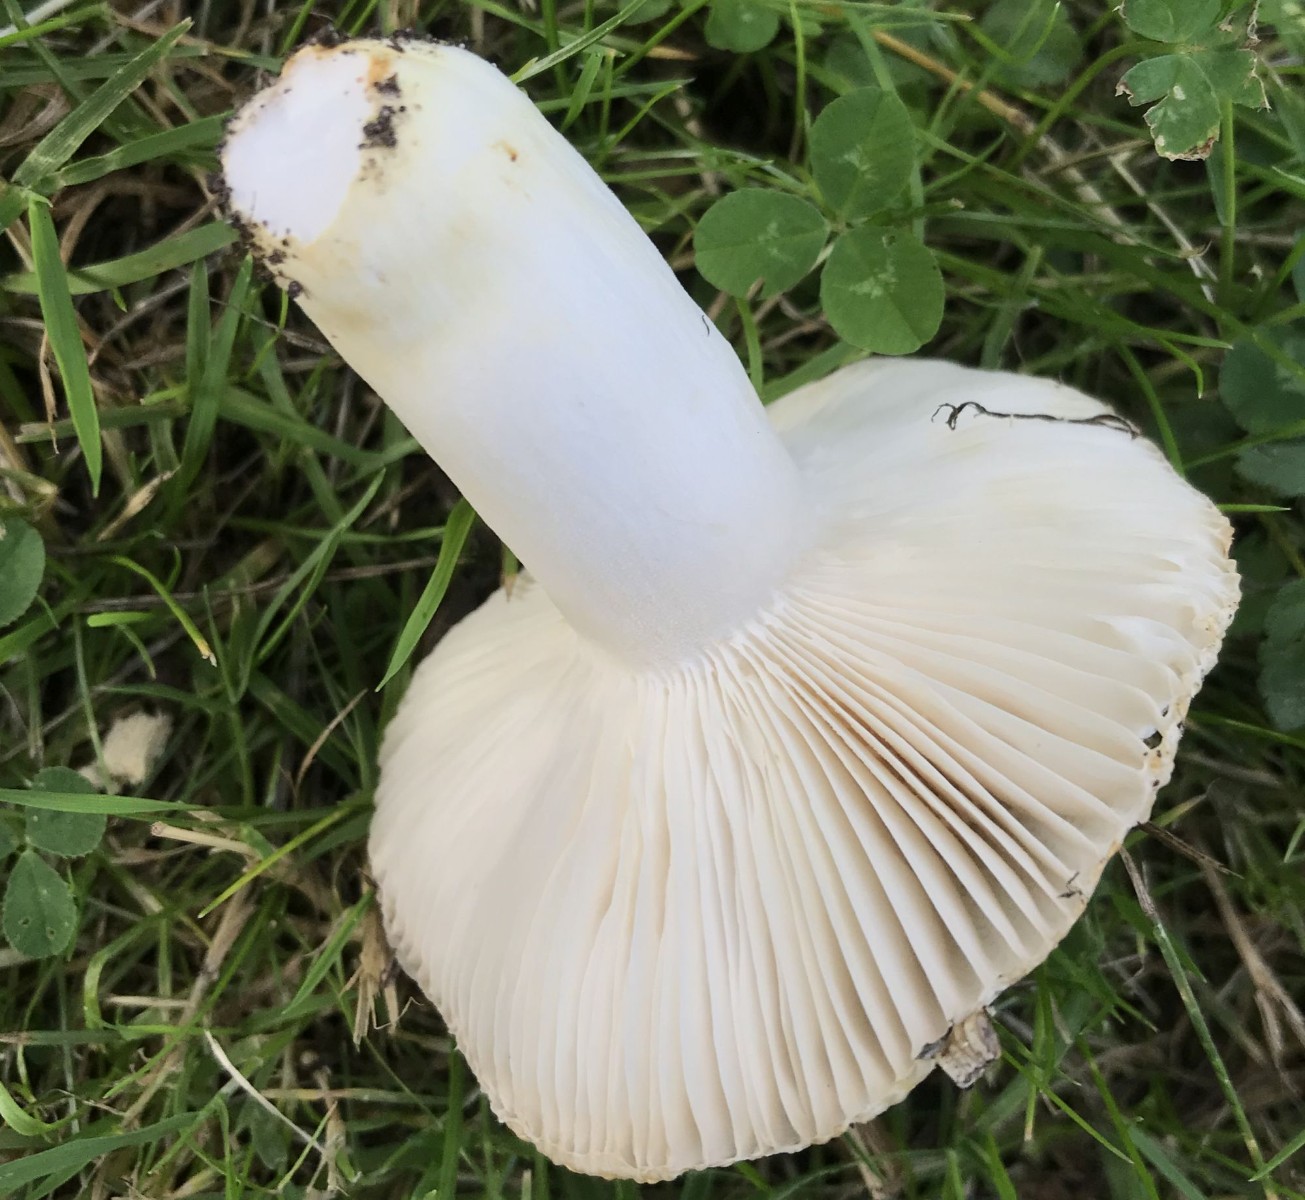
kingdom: Fungi
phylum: Basidiomycota
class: Agaricomycetes
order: Russulales
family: Russulaceae
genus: Russula
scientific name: Russula insignis
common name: gulfodet kam-skørhat
